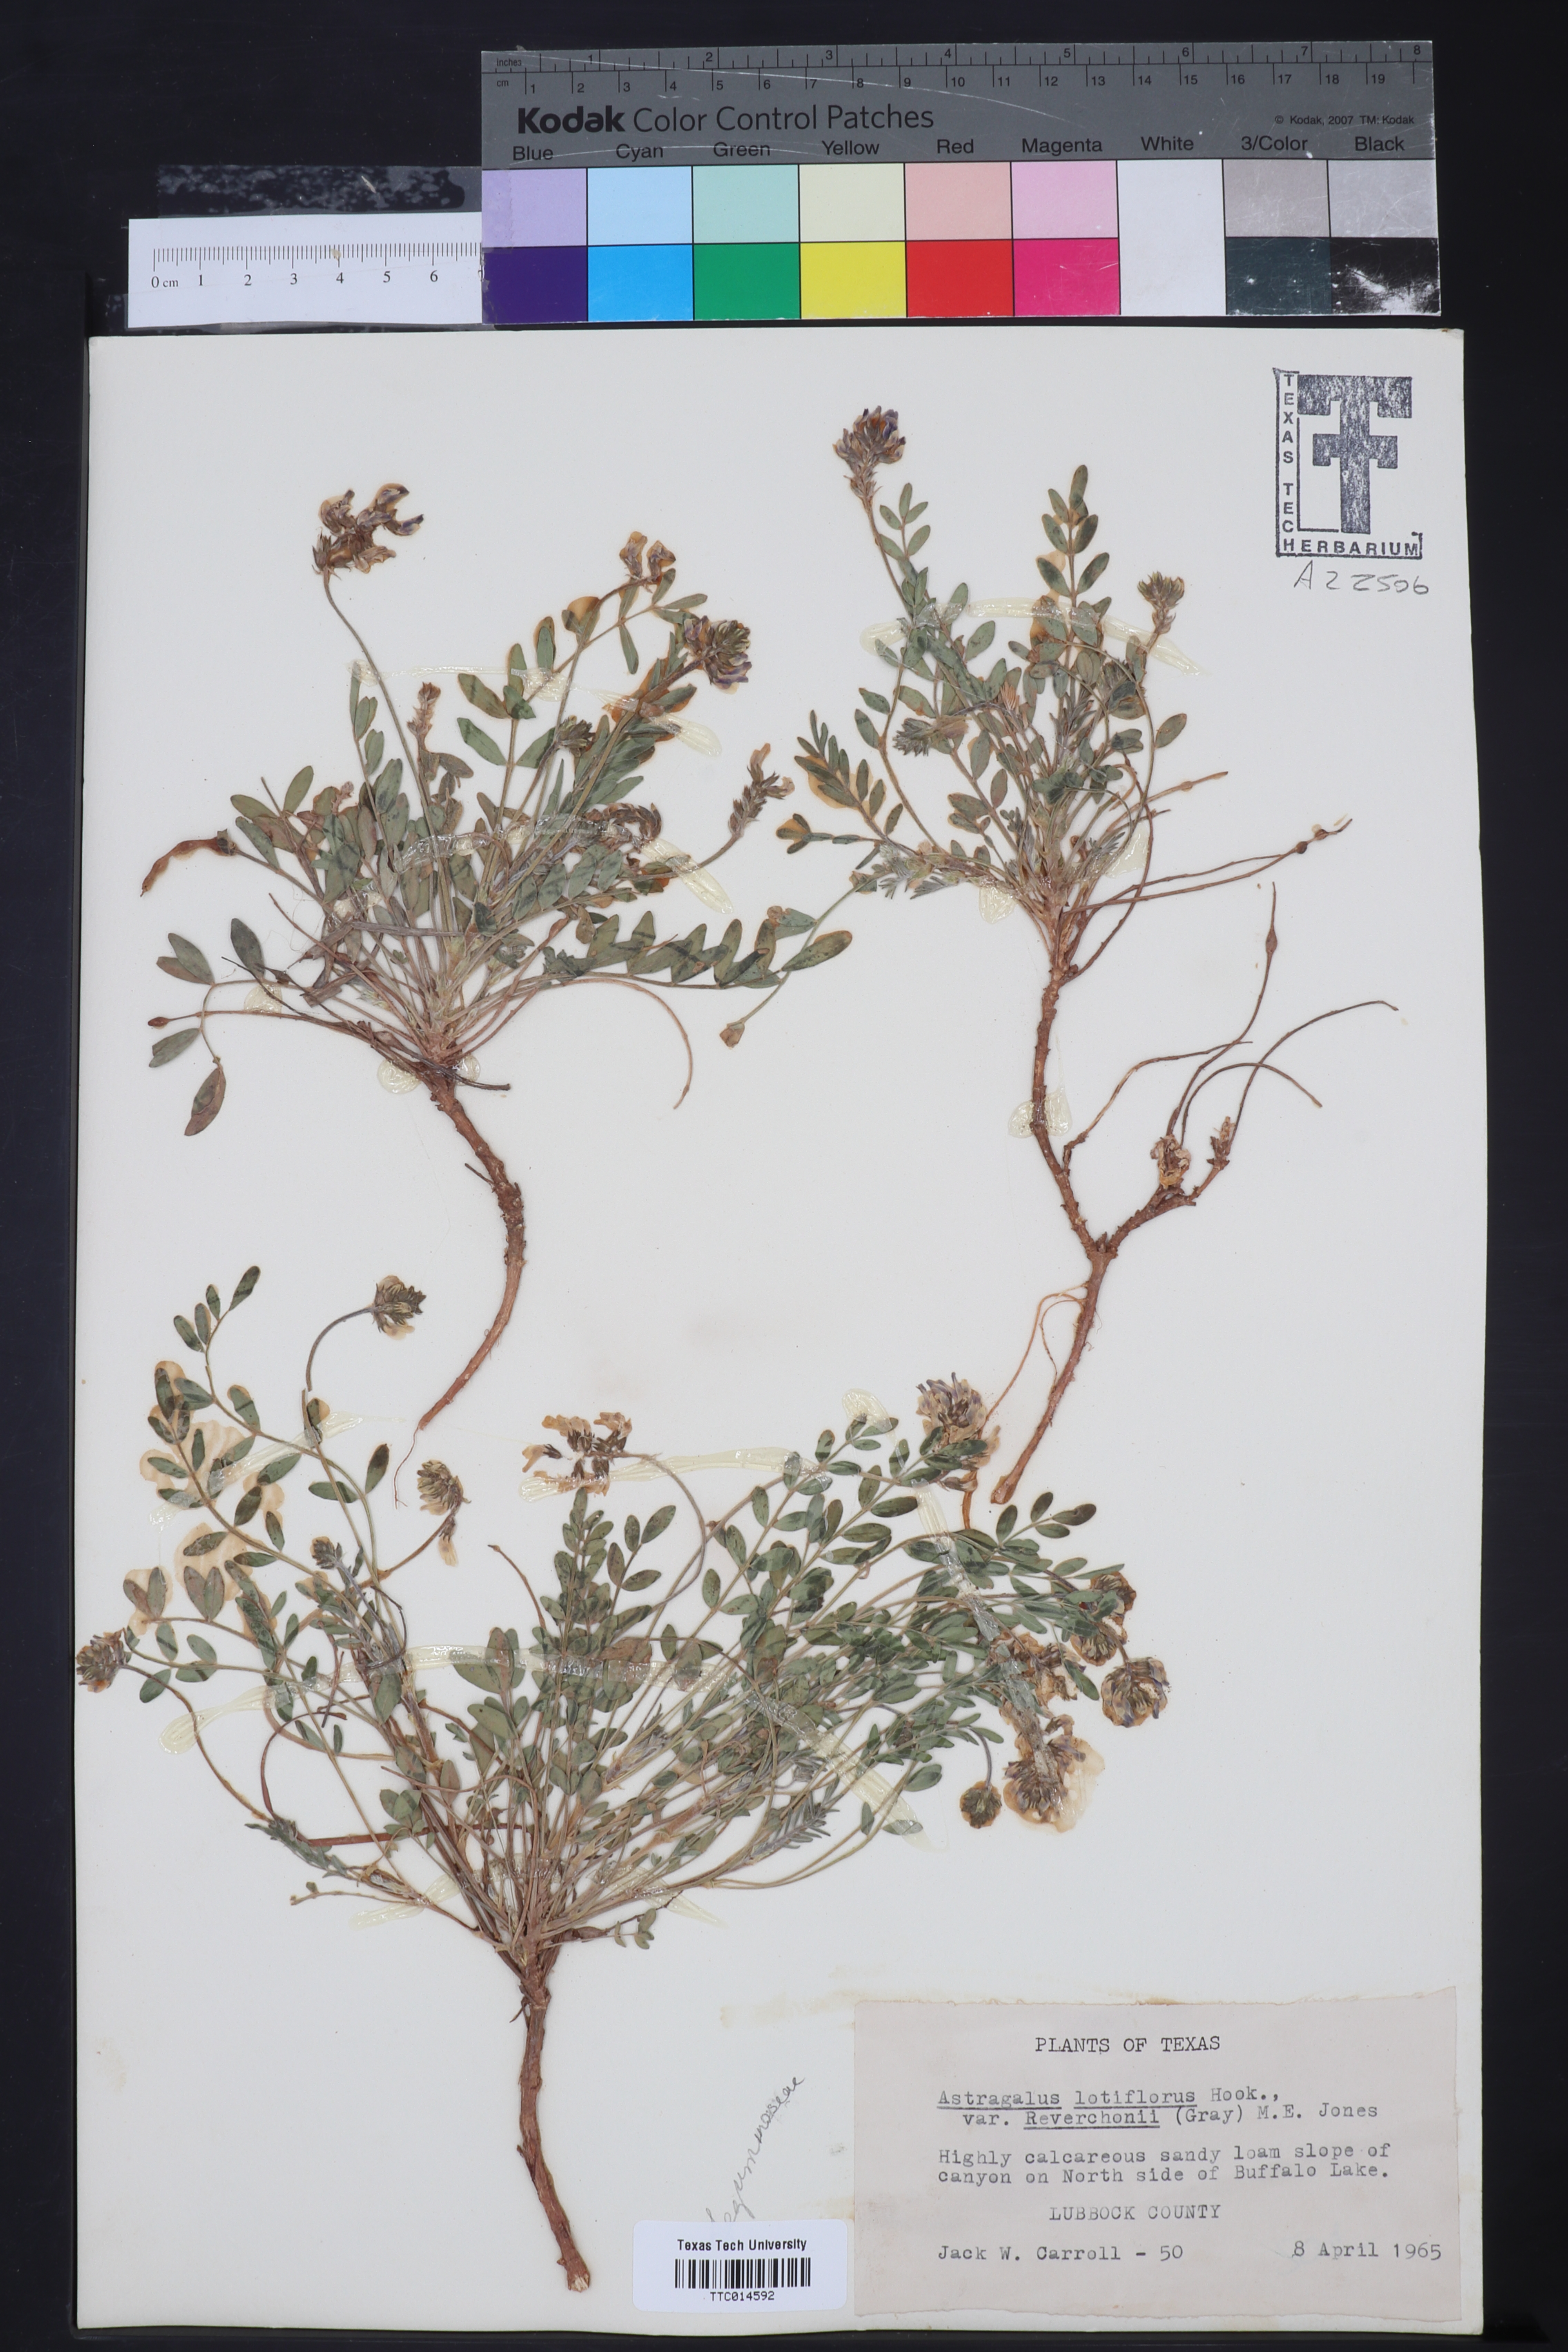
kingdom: Plantae
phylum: Tracheophyta
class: Magnoliopsida
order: Fabales
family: Fabaceae
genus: Astragalus
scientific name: Astragalus lotiflorus
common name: Lotus milk-vetch
